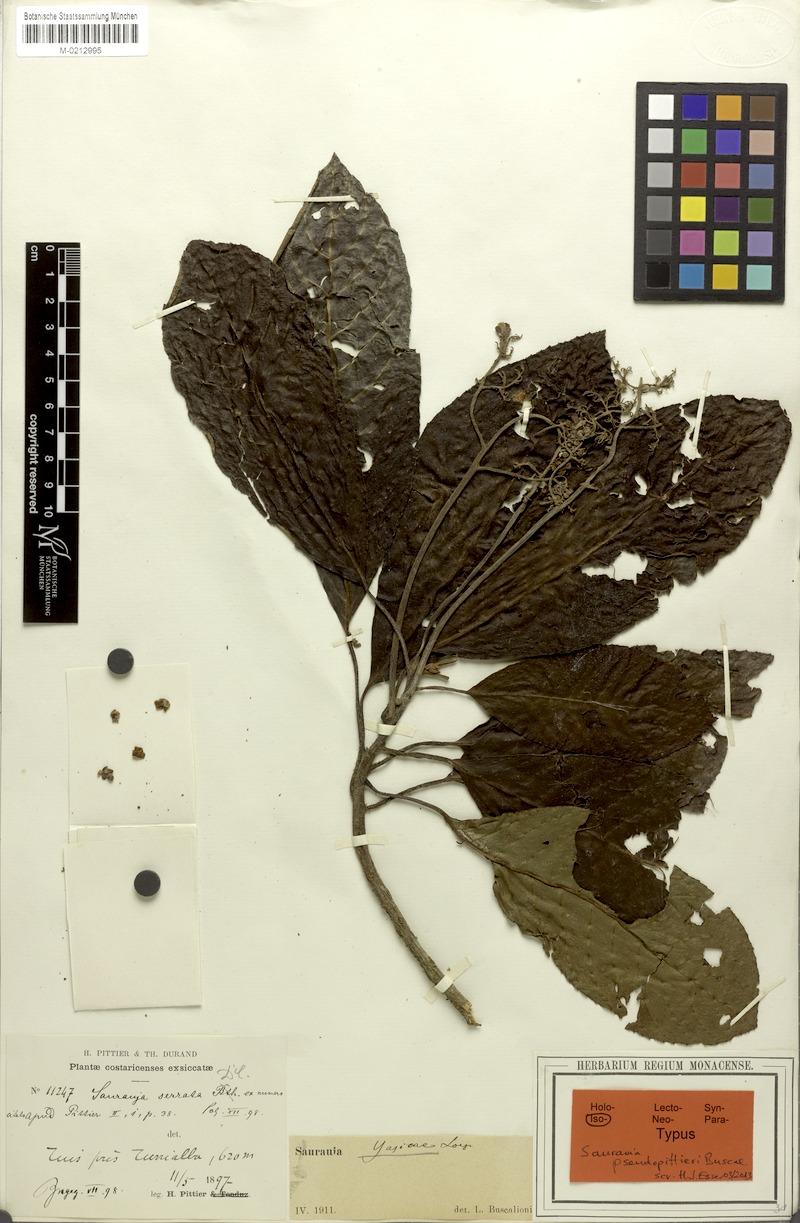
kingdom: Plantae
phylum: Tracheophyta
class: Magnoliopsida
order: Ericales
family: Actinidiaceae
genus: Saurauia
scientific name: Saurauia yasicae
